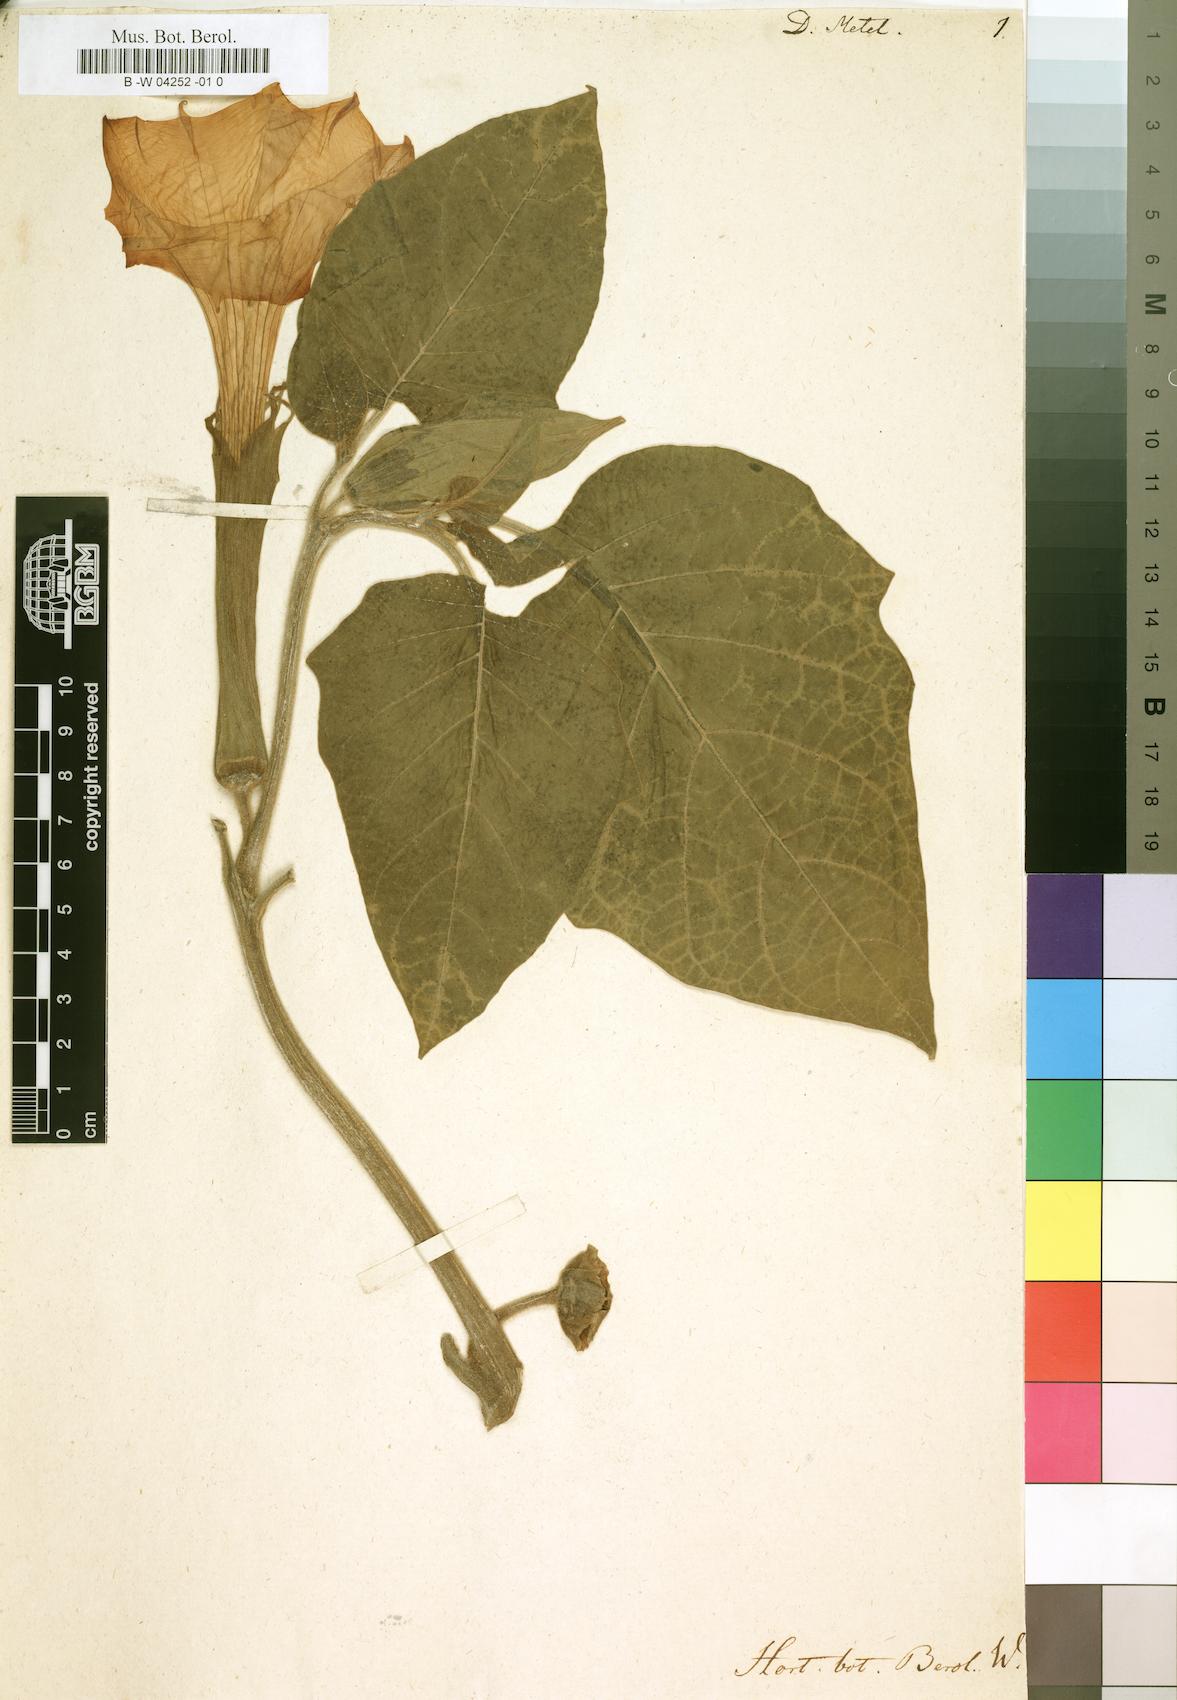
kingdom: Plantae
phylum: Tracheophyta
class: Magnoliopsida
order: Solanales
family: Solanaceae
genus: Datura
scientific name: Datura metel
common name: Jimsonweed
